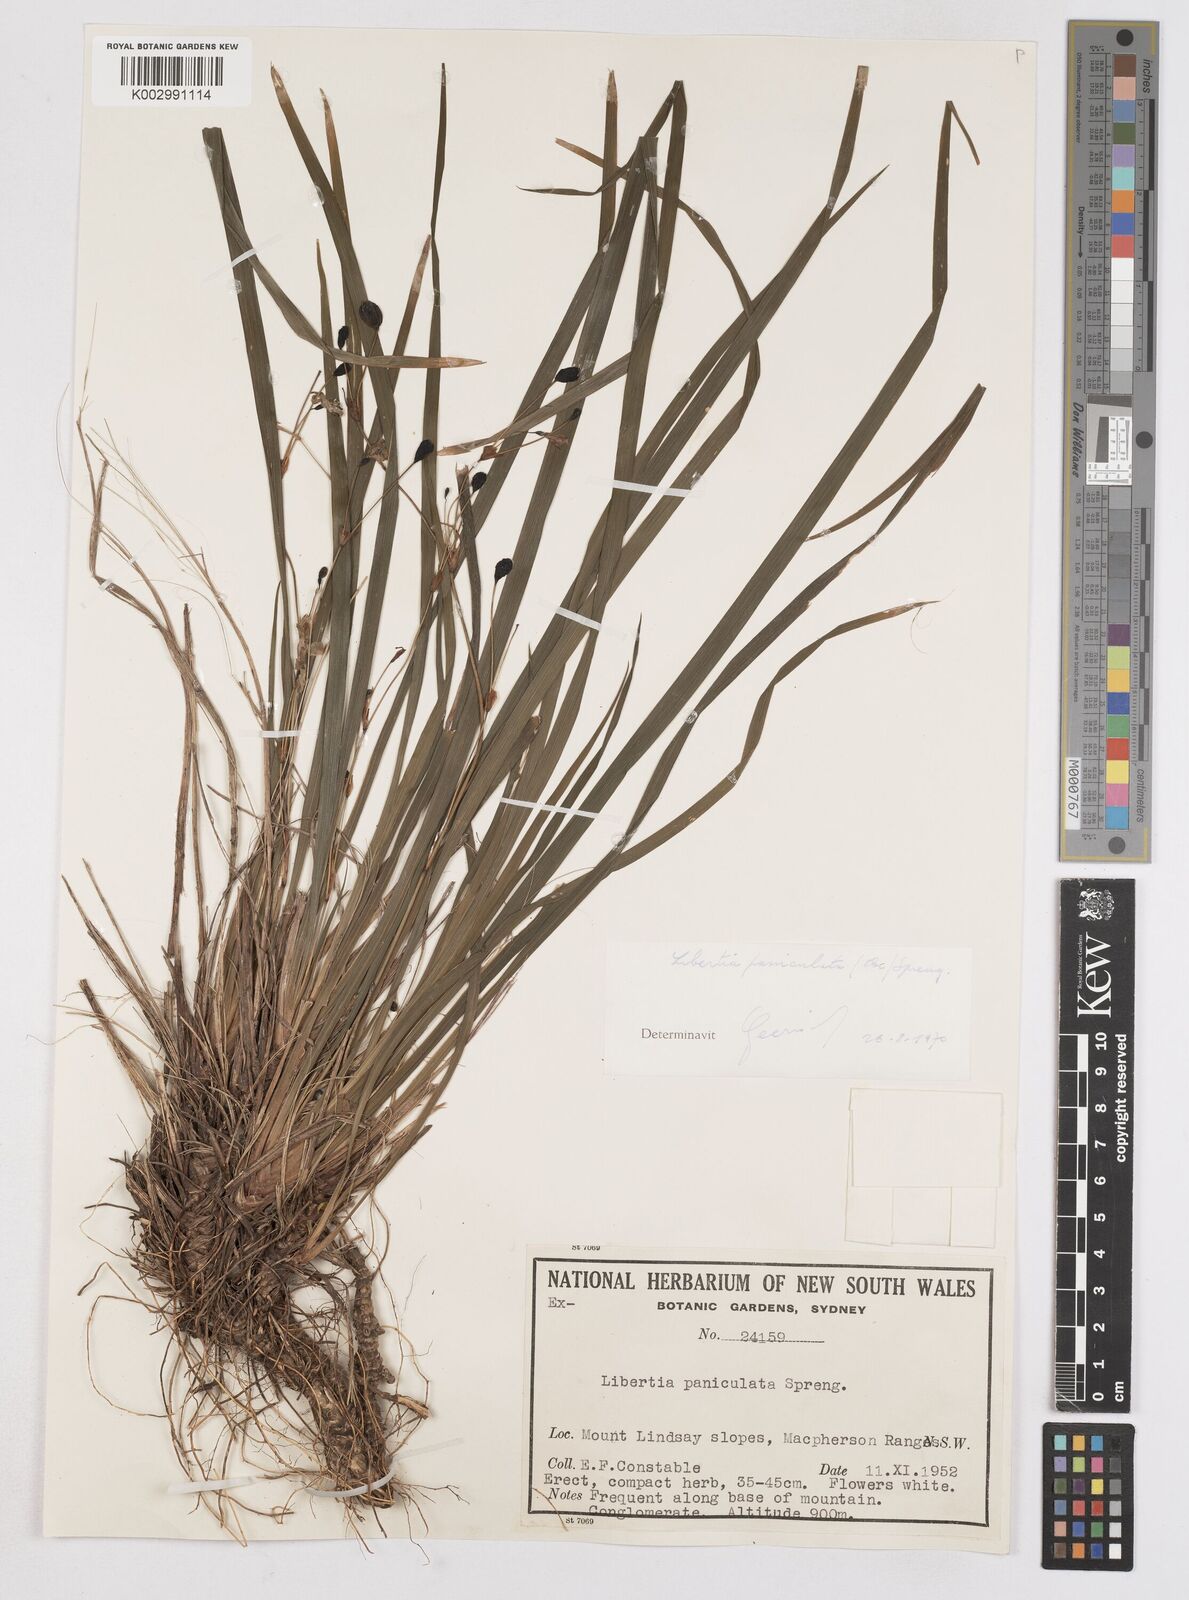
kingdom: Plantae
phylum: Tracheophyta
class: Liliopsida
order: Asparagales
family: Iridaceae
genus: Libertia
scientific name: Libertia paniculata
